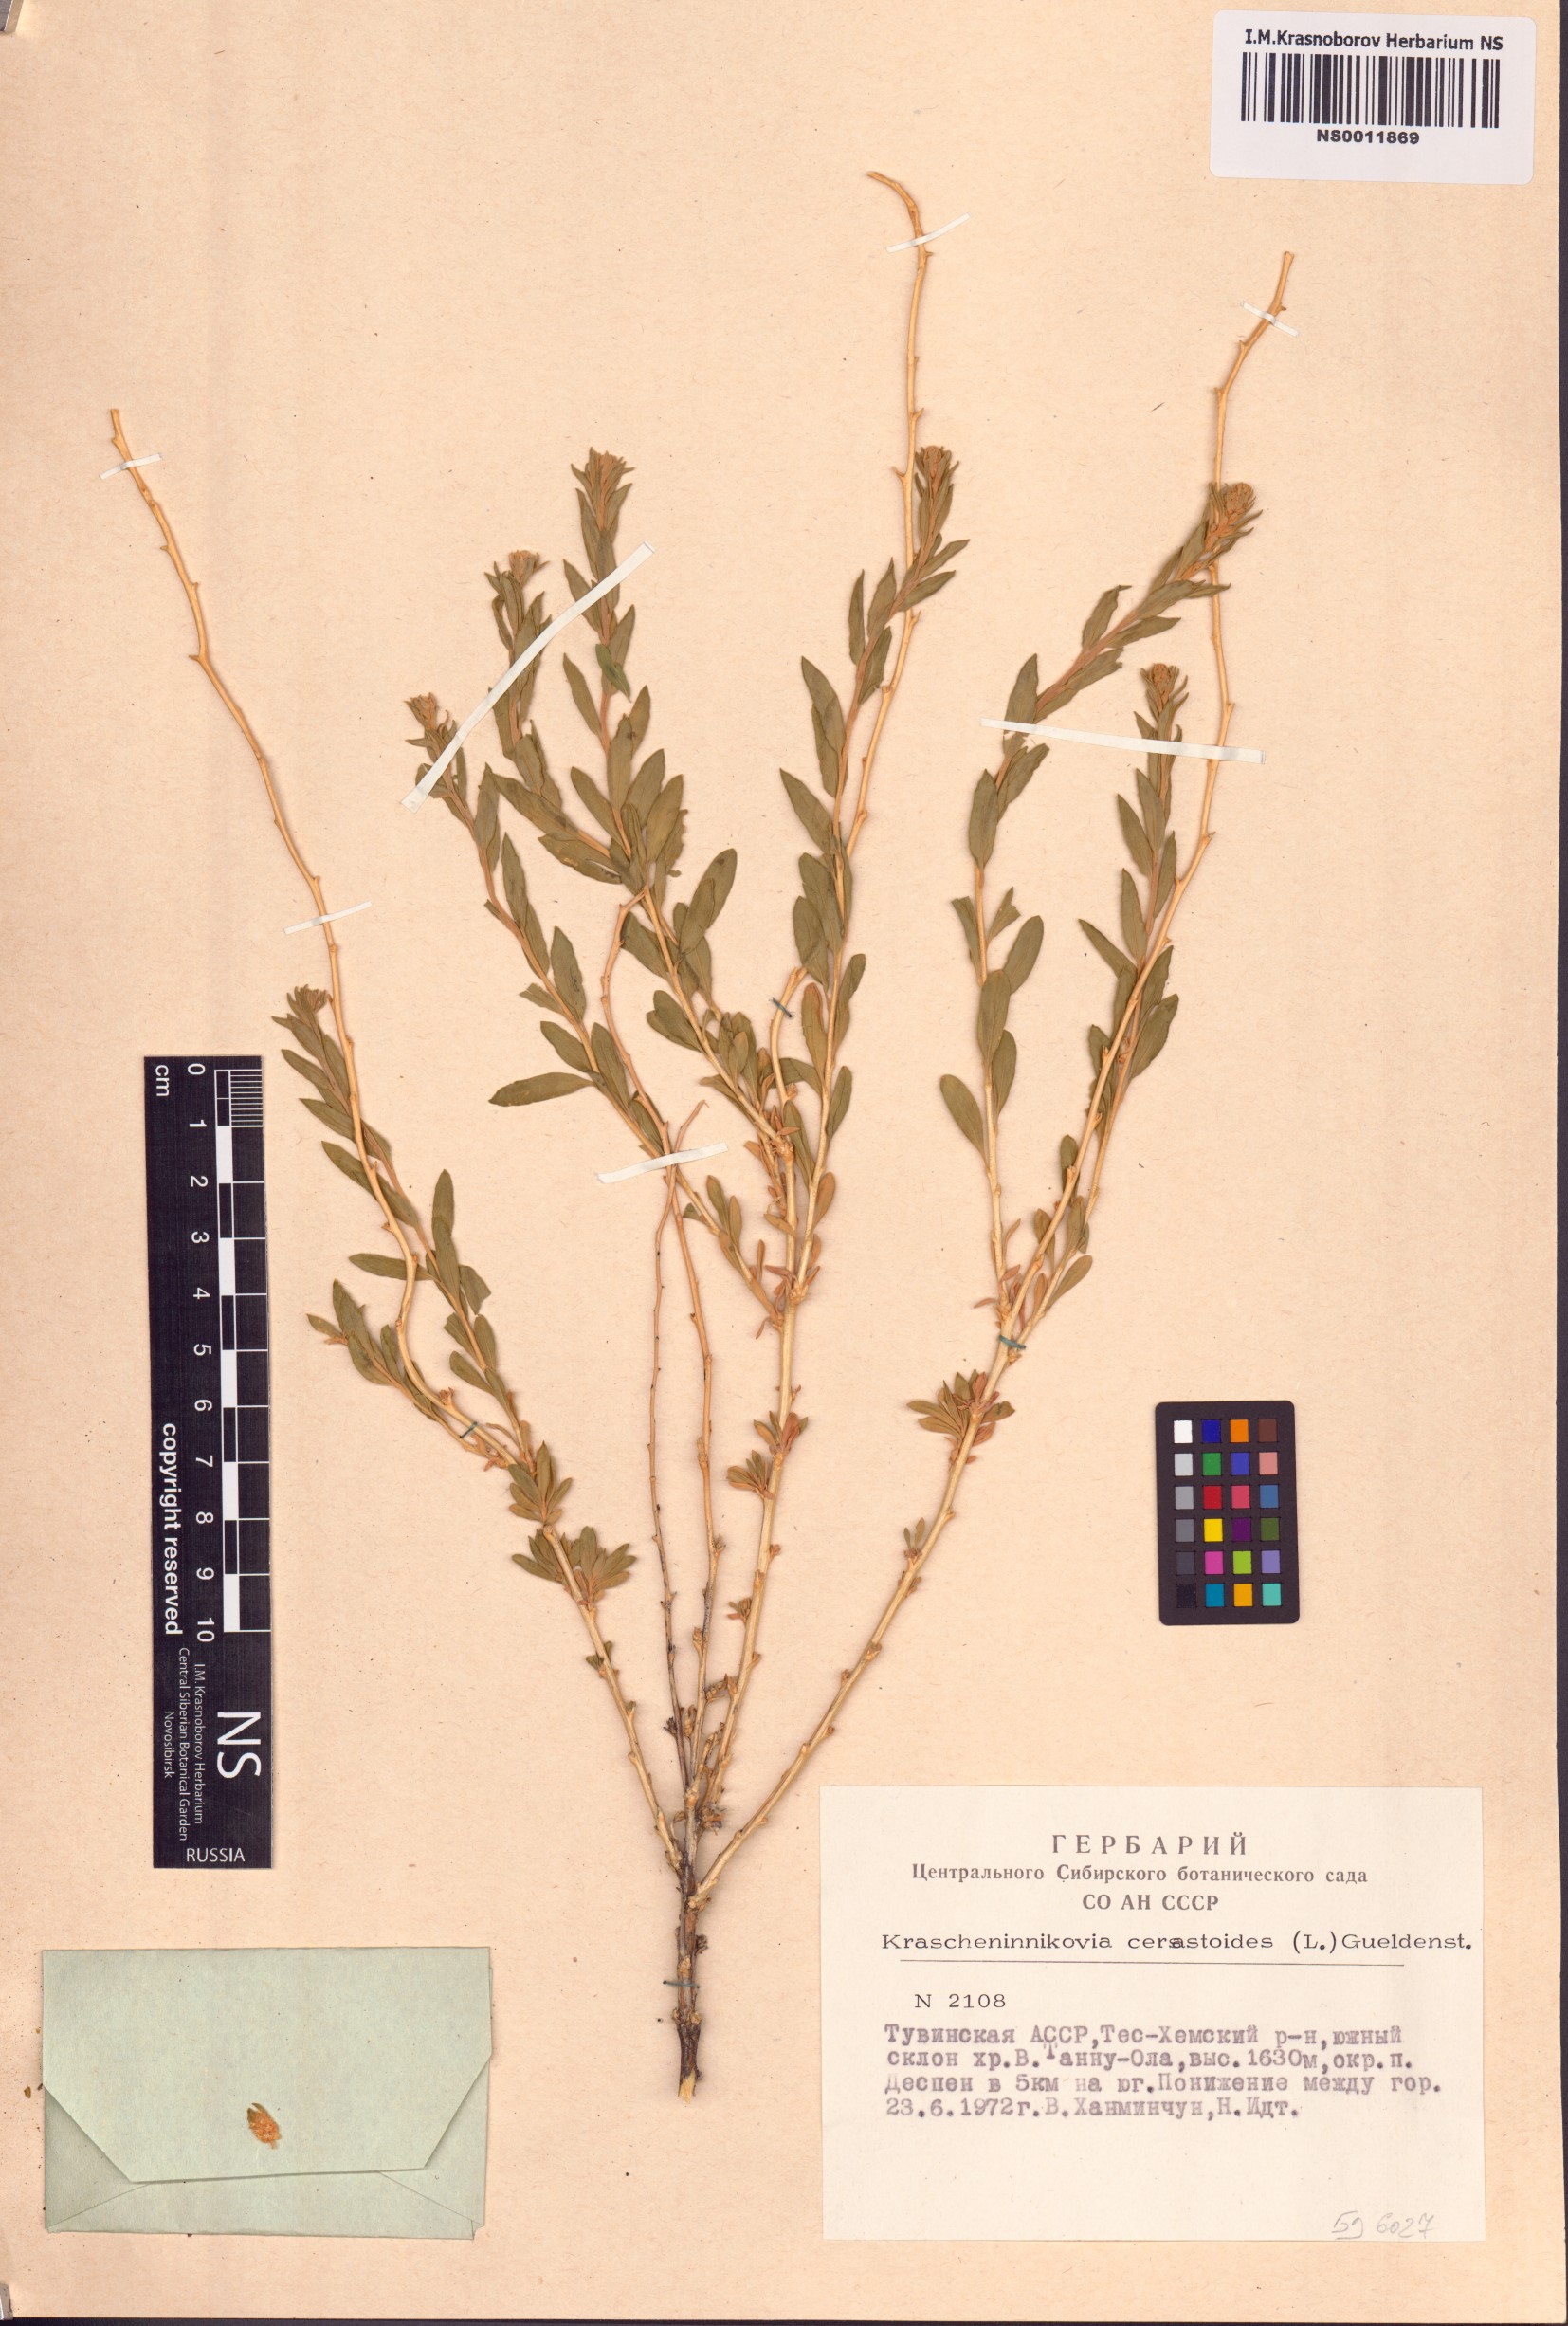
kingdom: Plantae
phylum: Tracheophyta
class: Magnoliopsida
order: Caryophyllales
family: Amaranthaceae
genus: Krascheninnikovia
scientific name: Krascheninnikovia ceratoides
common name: Pamirian winterfat
